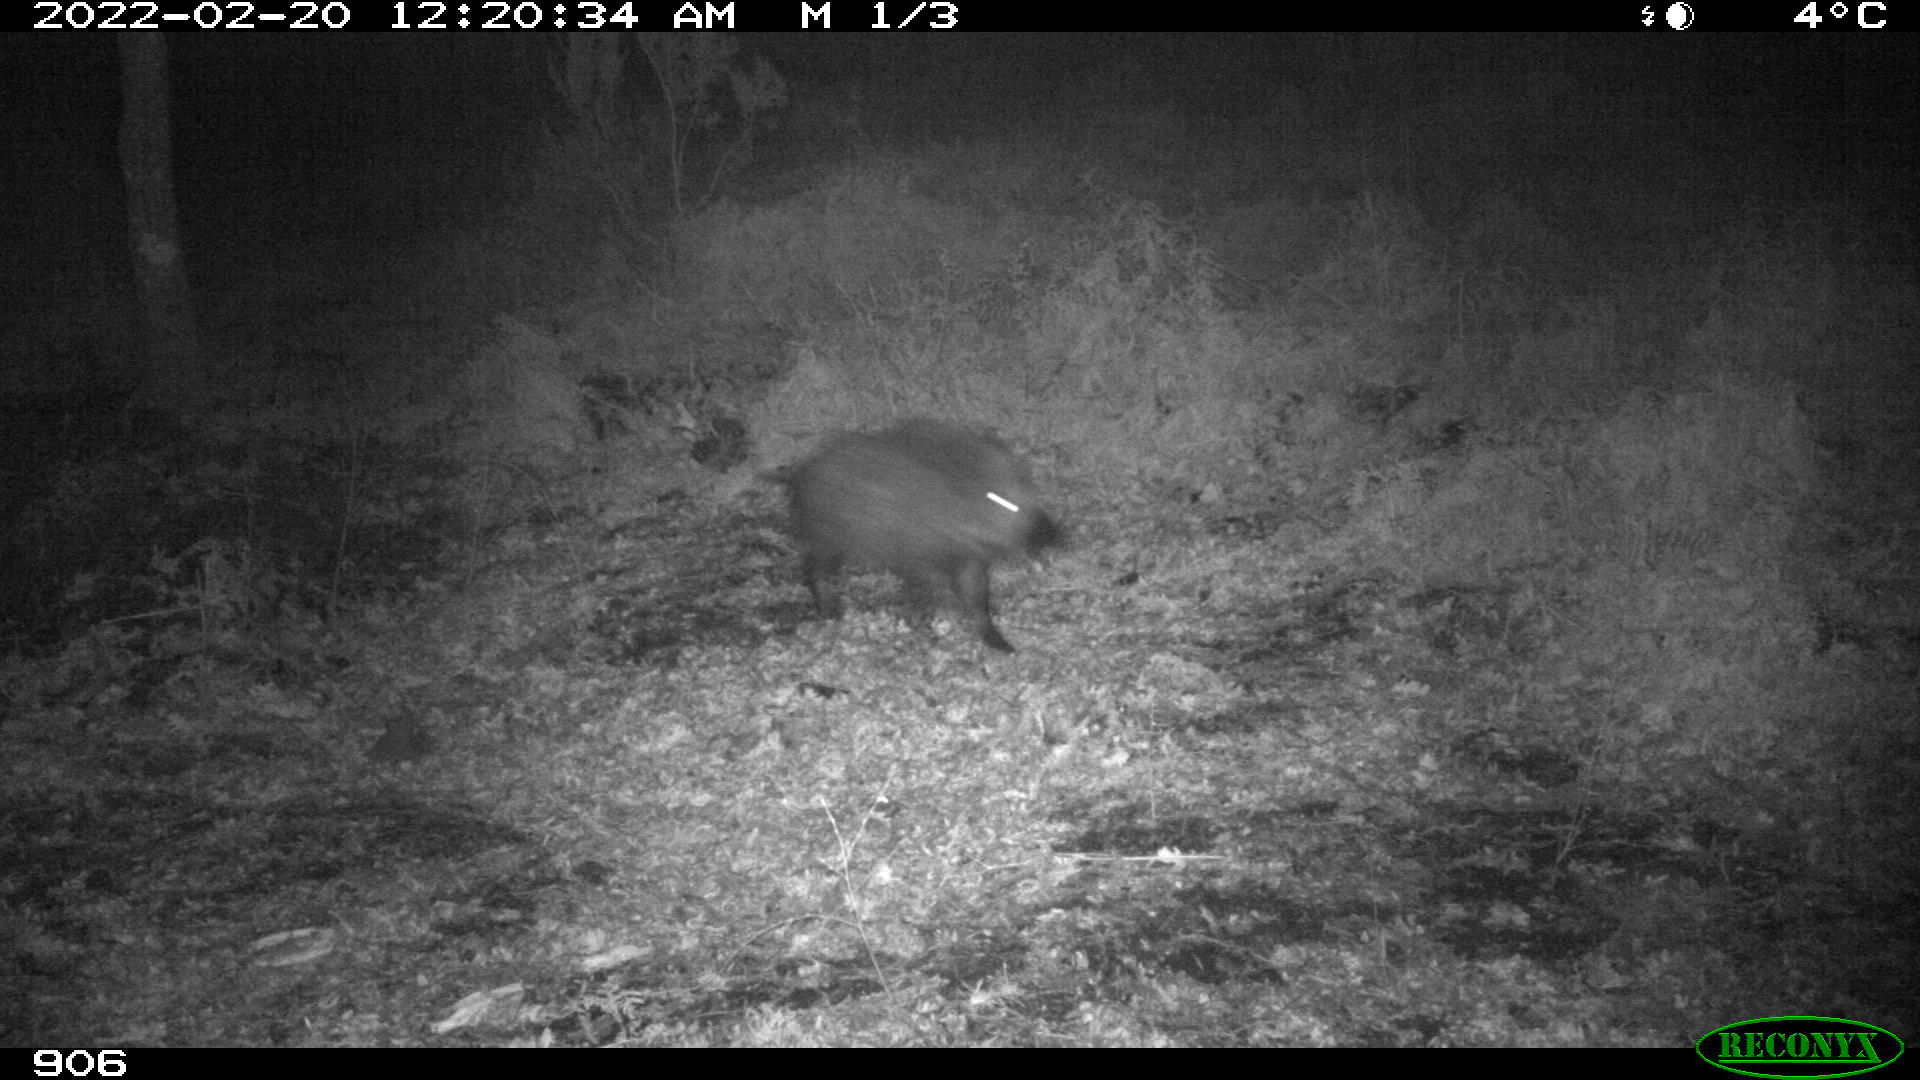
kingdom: Animalia
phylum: Chordata
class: Mammalia
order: Artiodactyla
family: Suidae
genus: Sus
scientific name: Sus scrofa
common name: Wild boar
